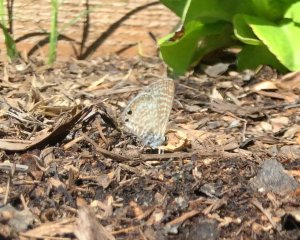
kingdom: Animalia
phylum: Arthropoda
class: Insecta
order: Lepidoptera
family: Lycaenidae
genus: Leptotes
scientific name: Leptotes marina
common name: Marine Blue
